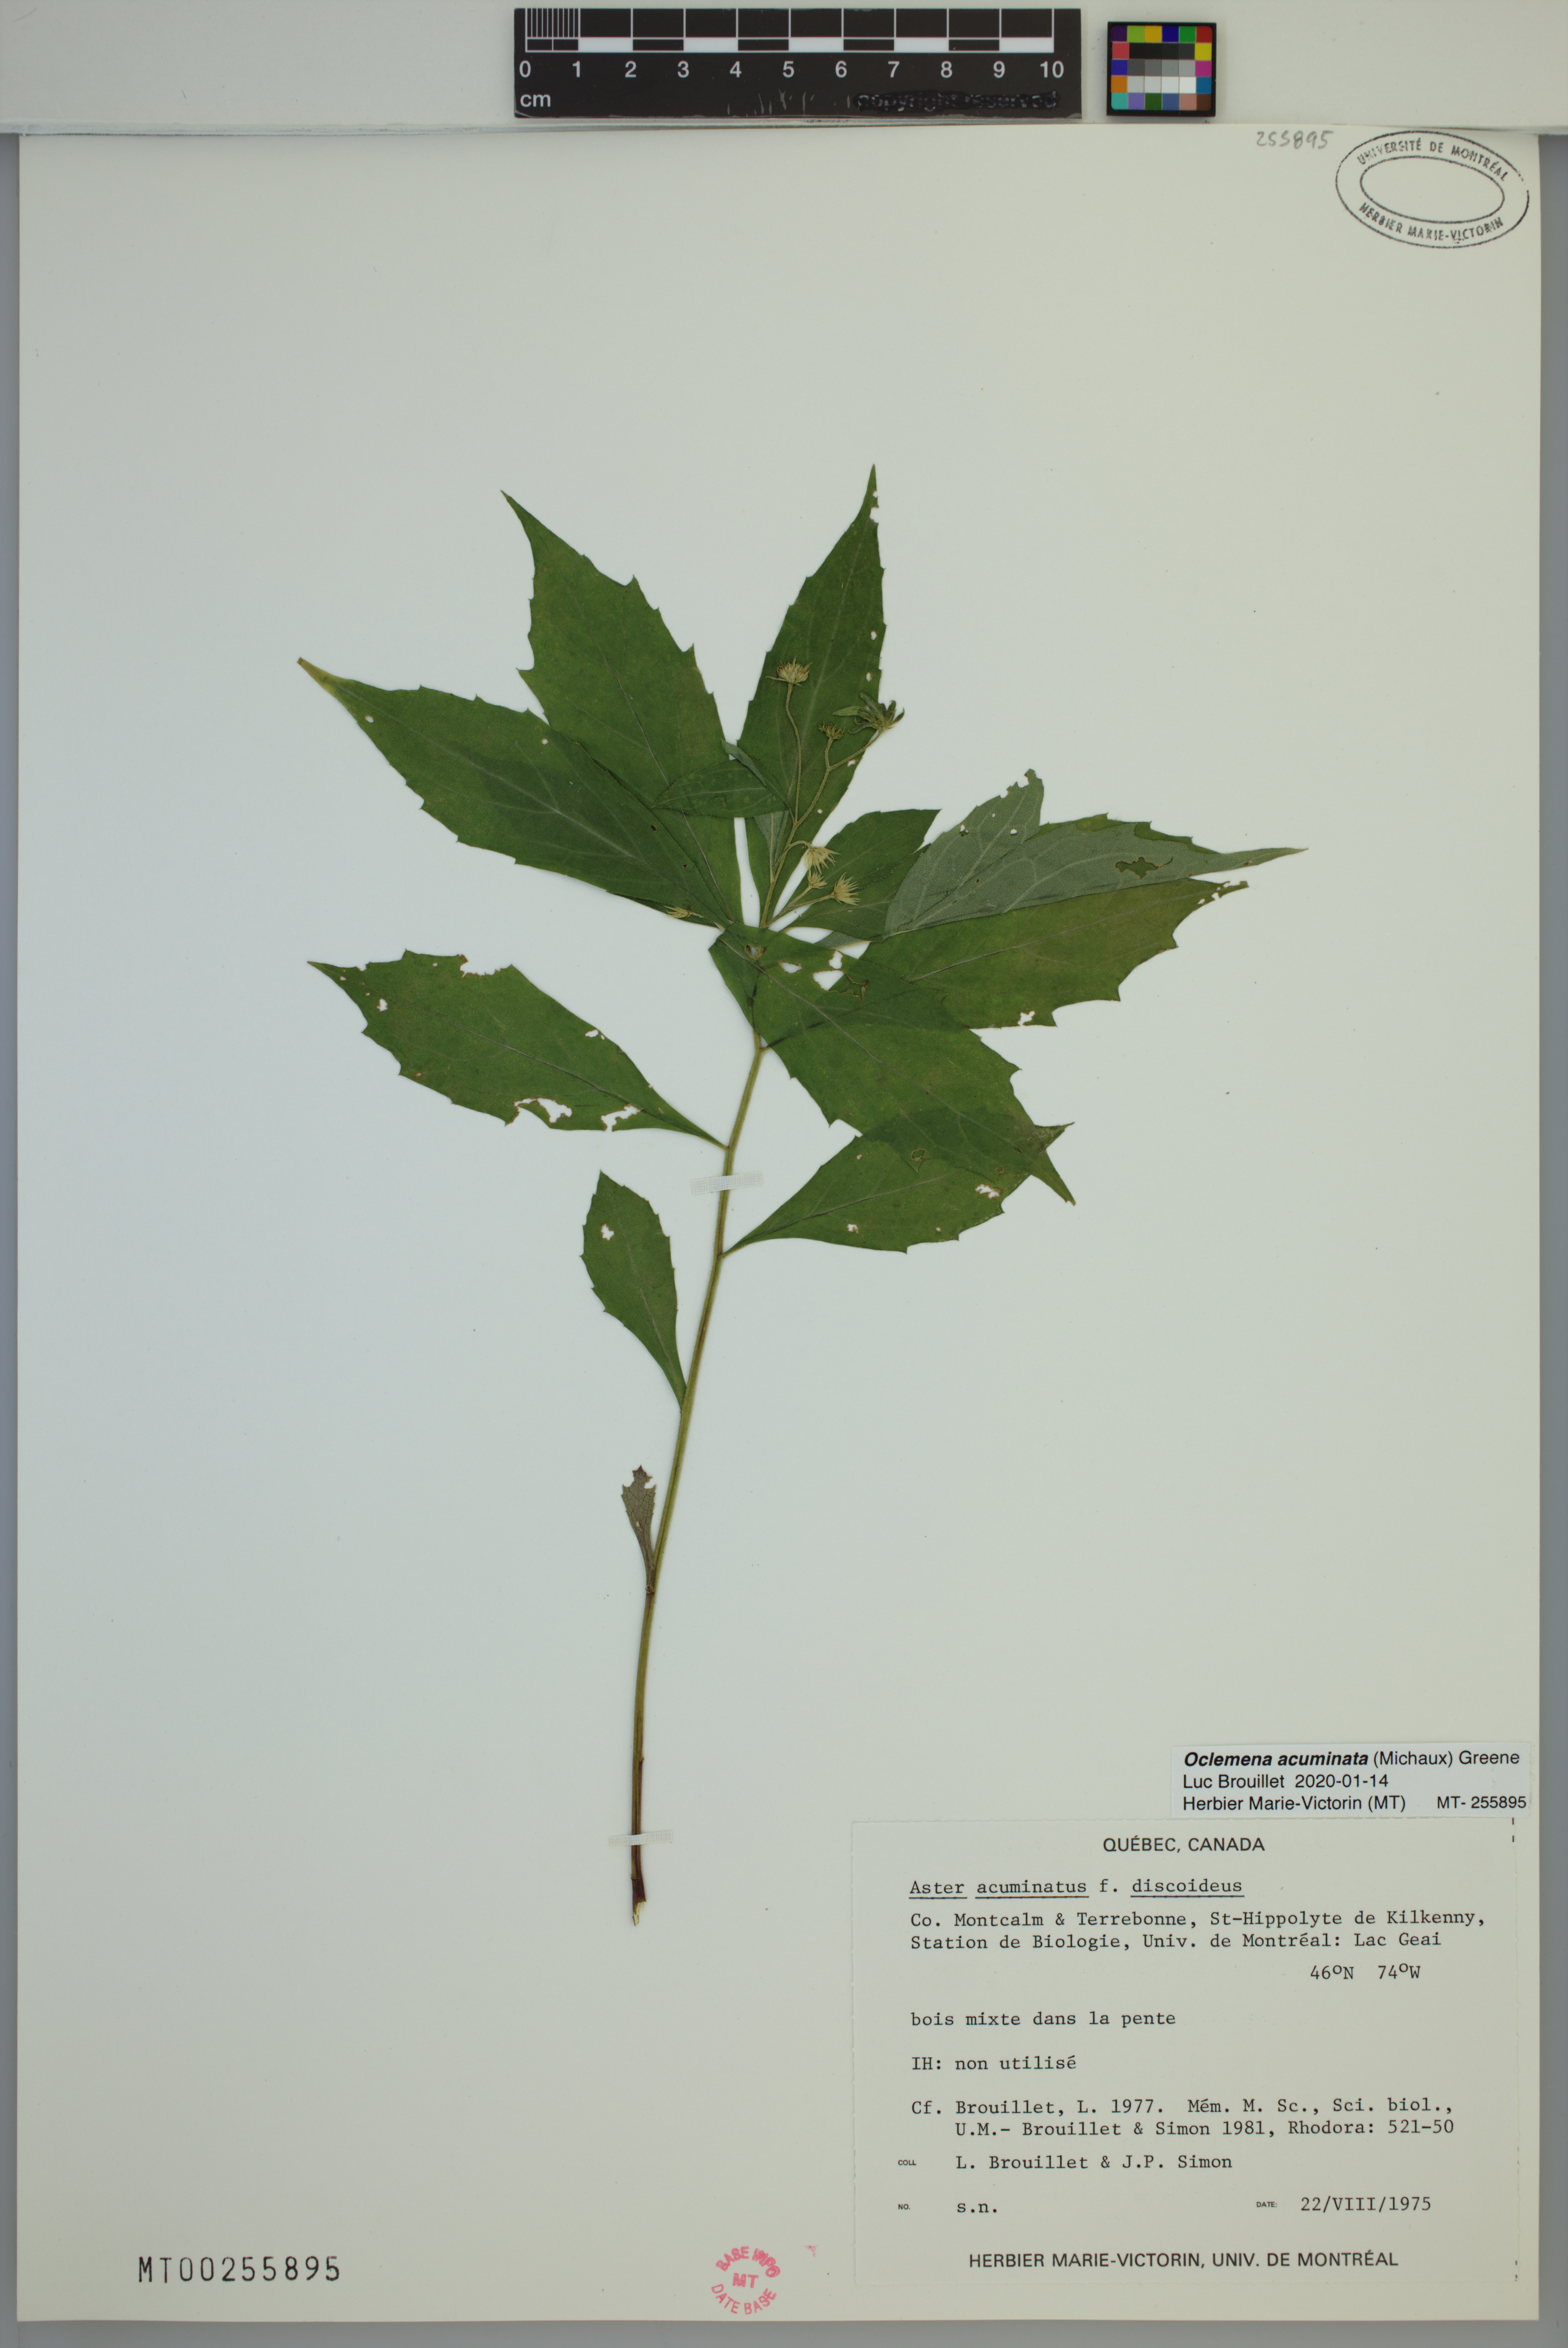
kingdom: Plantae
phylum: Tracheophyta
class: Magnoliopsida
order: Asterales
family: Asteraceae
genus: Oclemena
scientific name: Oclemena acuminata
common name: Mountain aster
